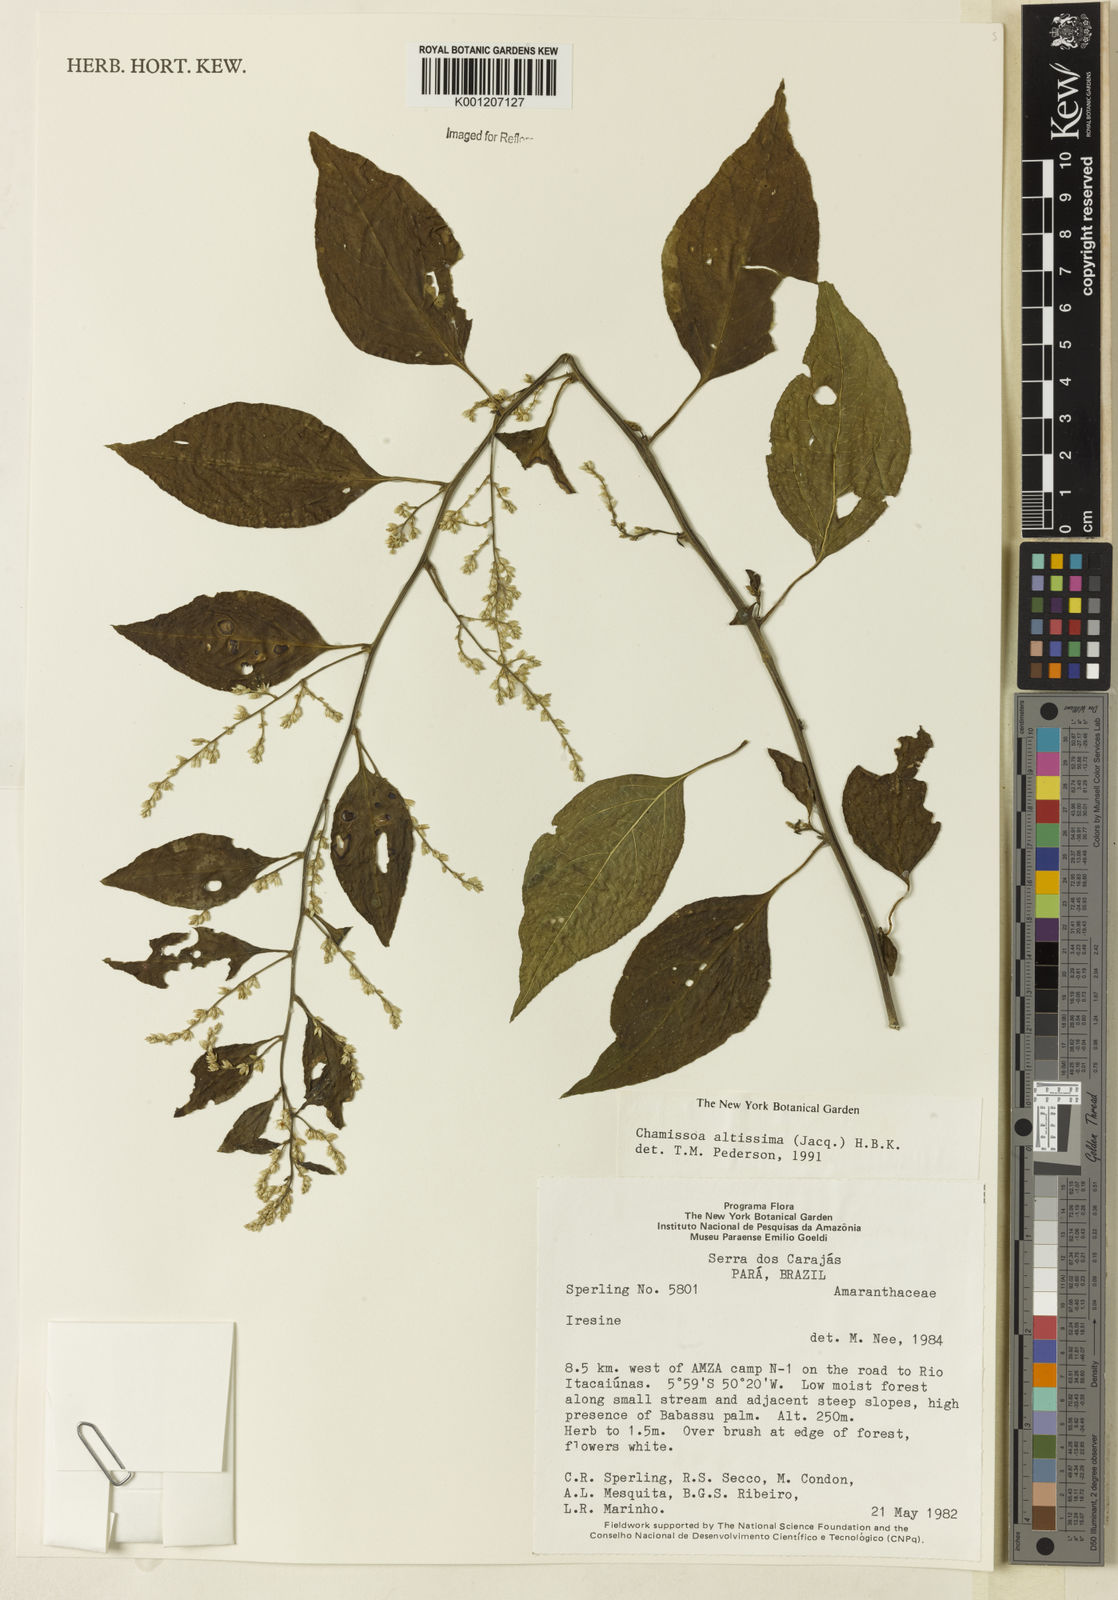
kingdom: Plantae
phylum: Tracheophyta
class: Magnoliopsida
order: Caryophyllales
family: Amaranthaceae
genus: Chamissoa
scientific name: Chamissoa altissima
